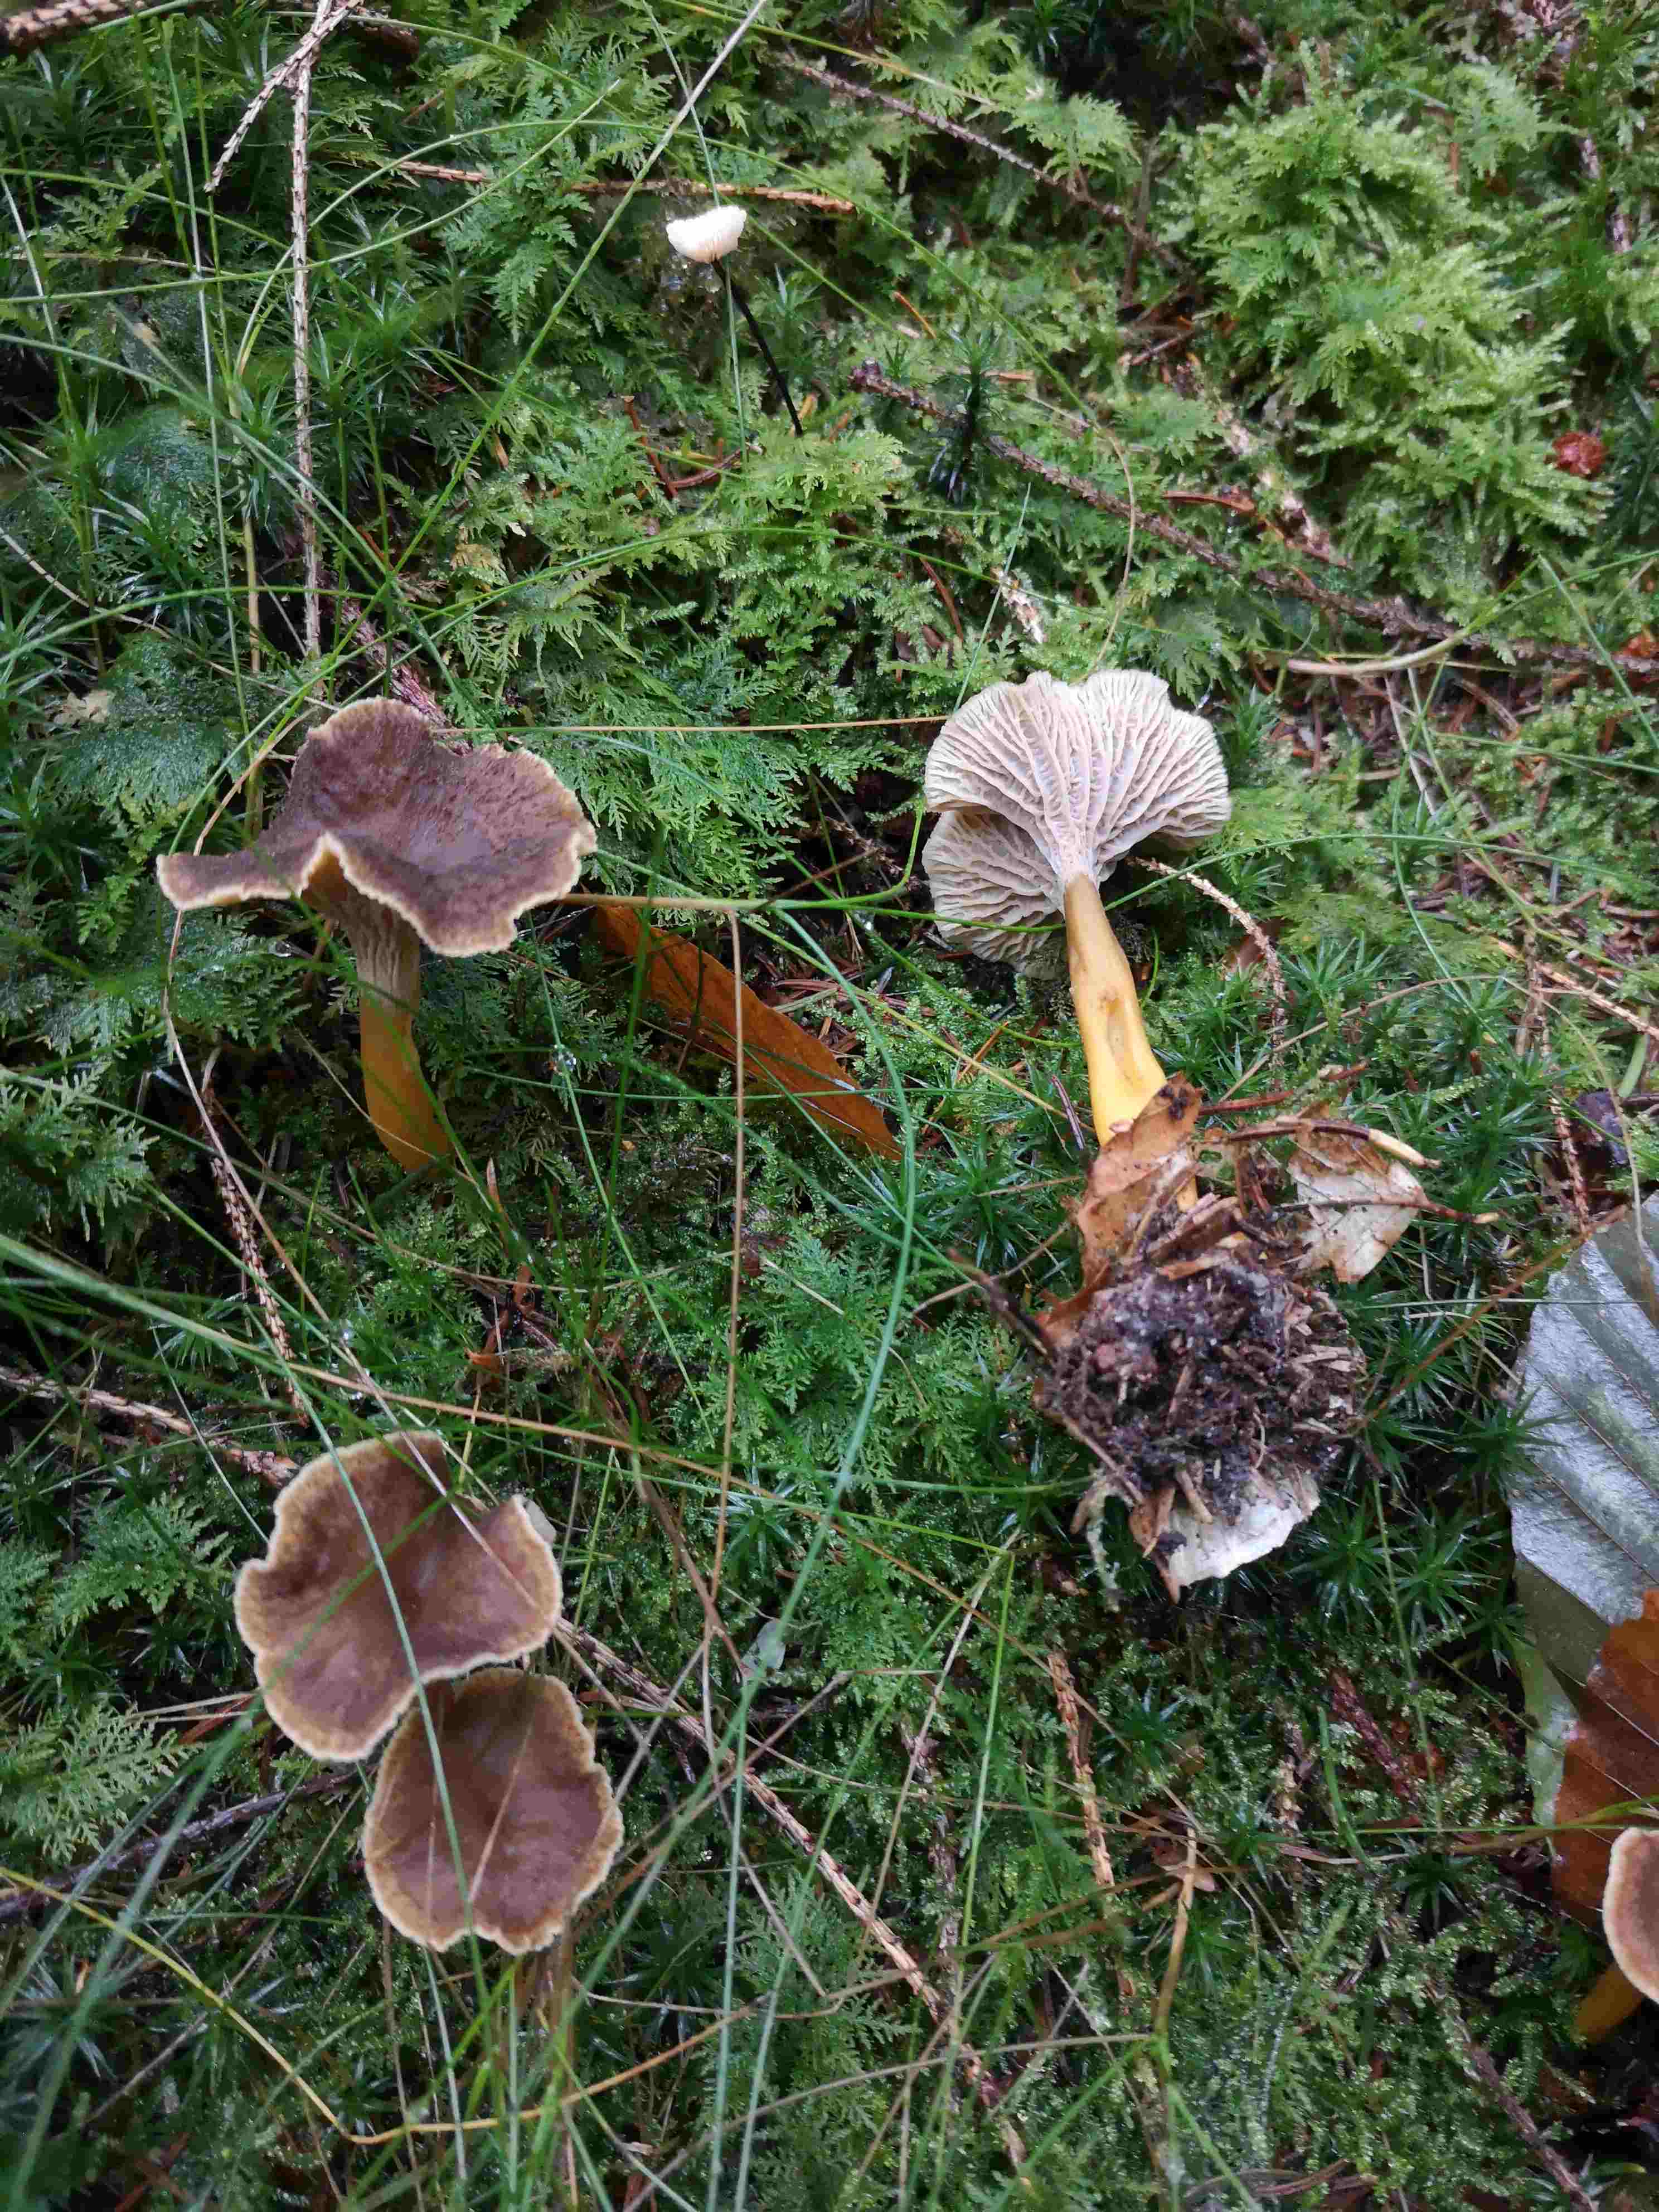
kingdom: Fungi
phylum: Basidiomycota
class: Agaricomycetes
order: Cantharellales
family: Hydnaceae
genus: Craterellus
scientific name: Craterellus tubaeformis
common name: tragt-kantarel
